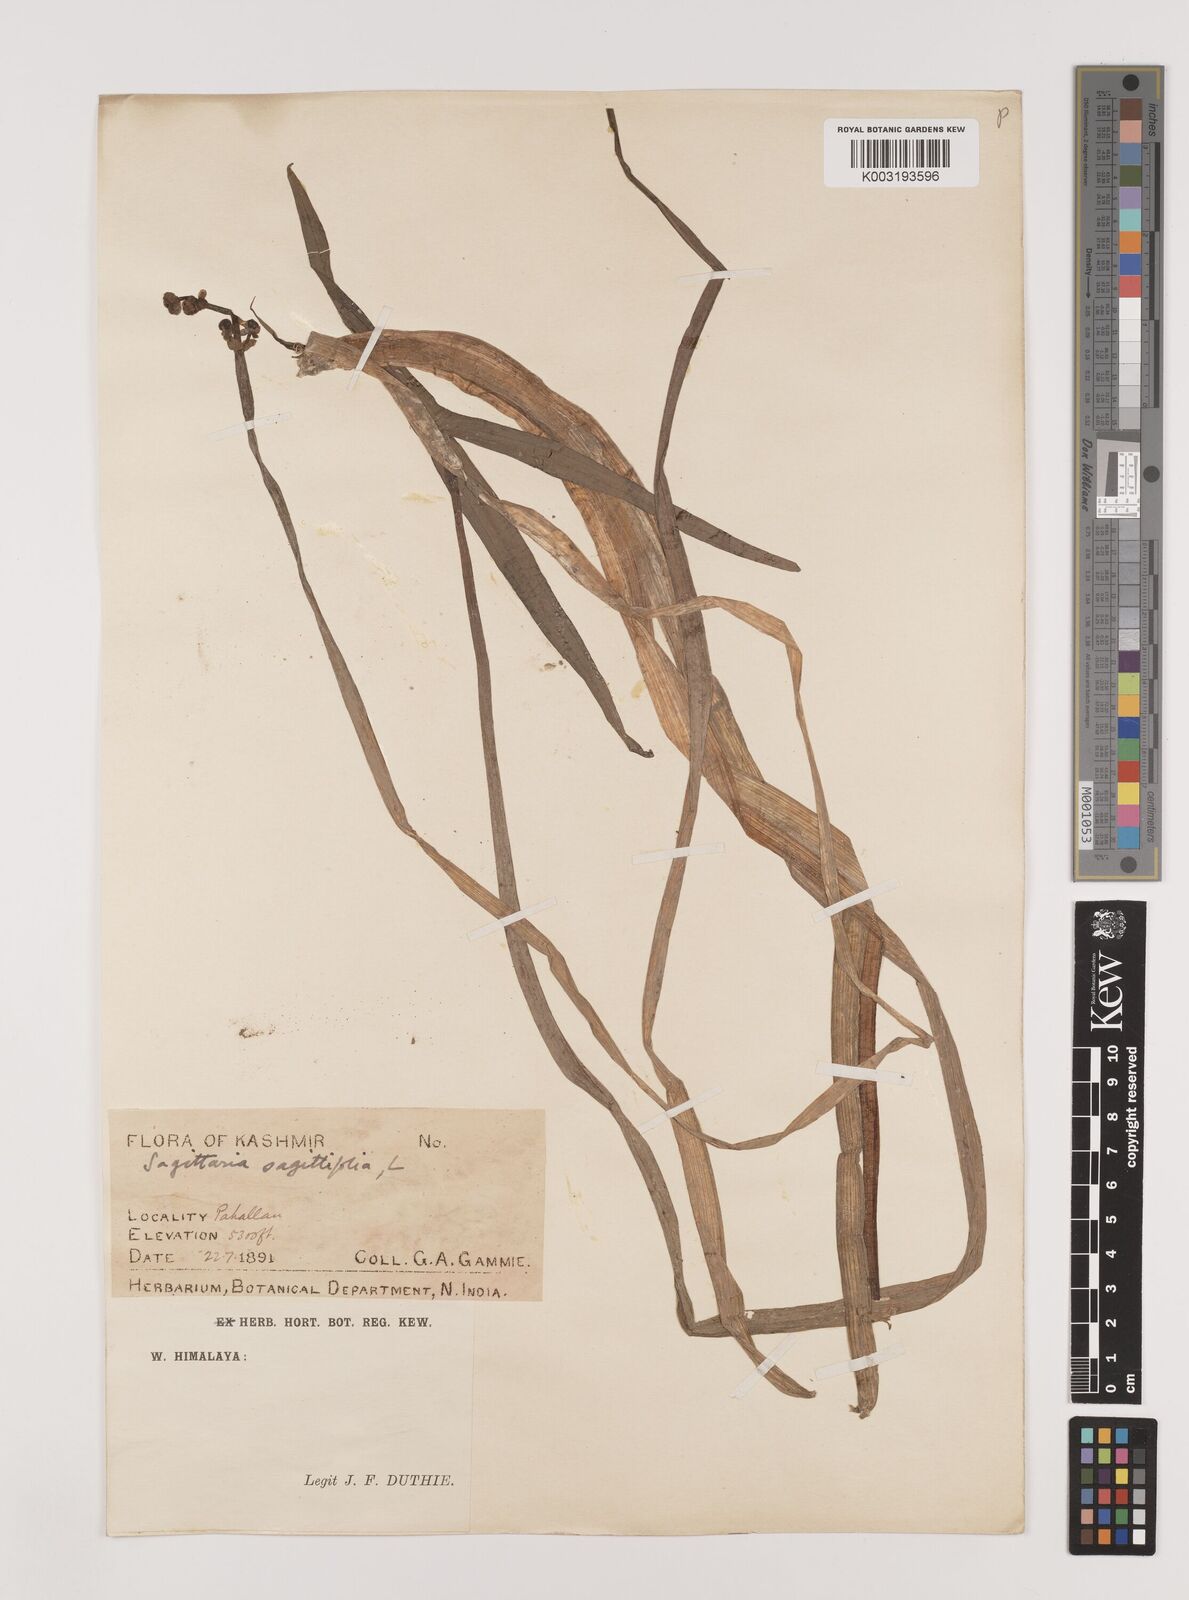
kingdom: Plantae
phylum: Tracheophyta
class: Liliopsida
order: Alismatales
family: Alismataceae
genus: Sagittaria
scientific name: Sagittaria sagittifolia
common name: Arrowhead
